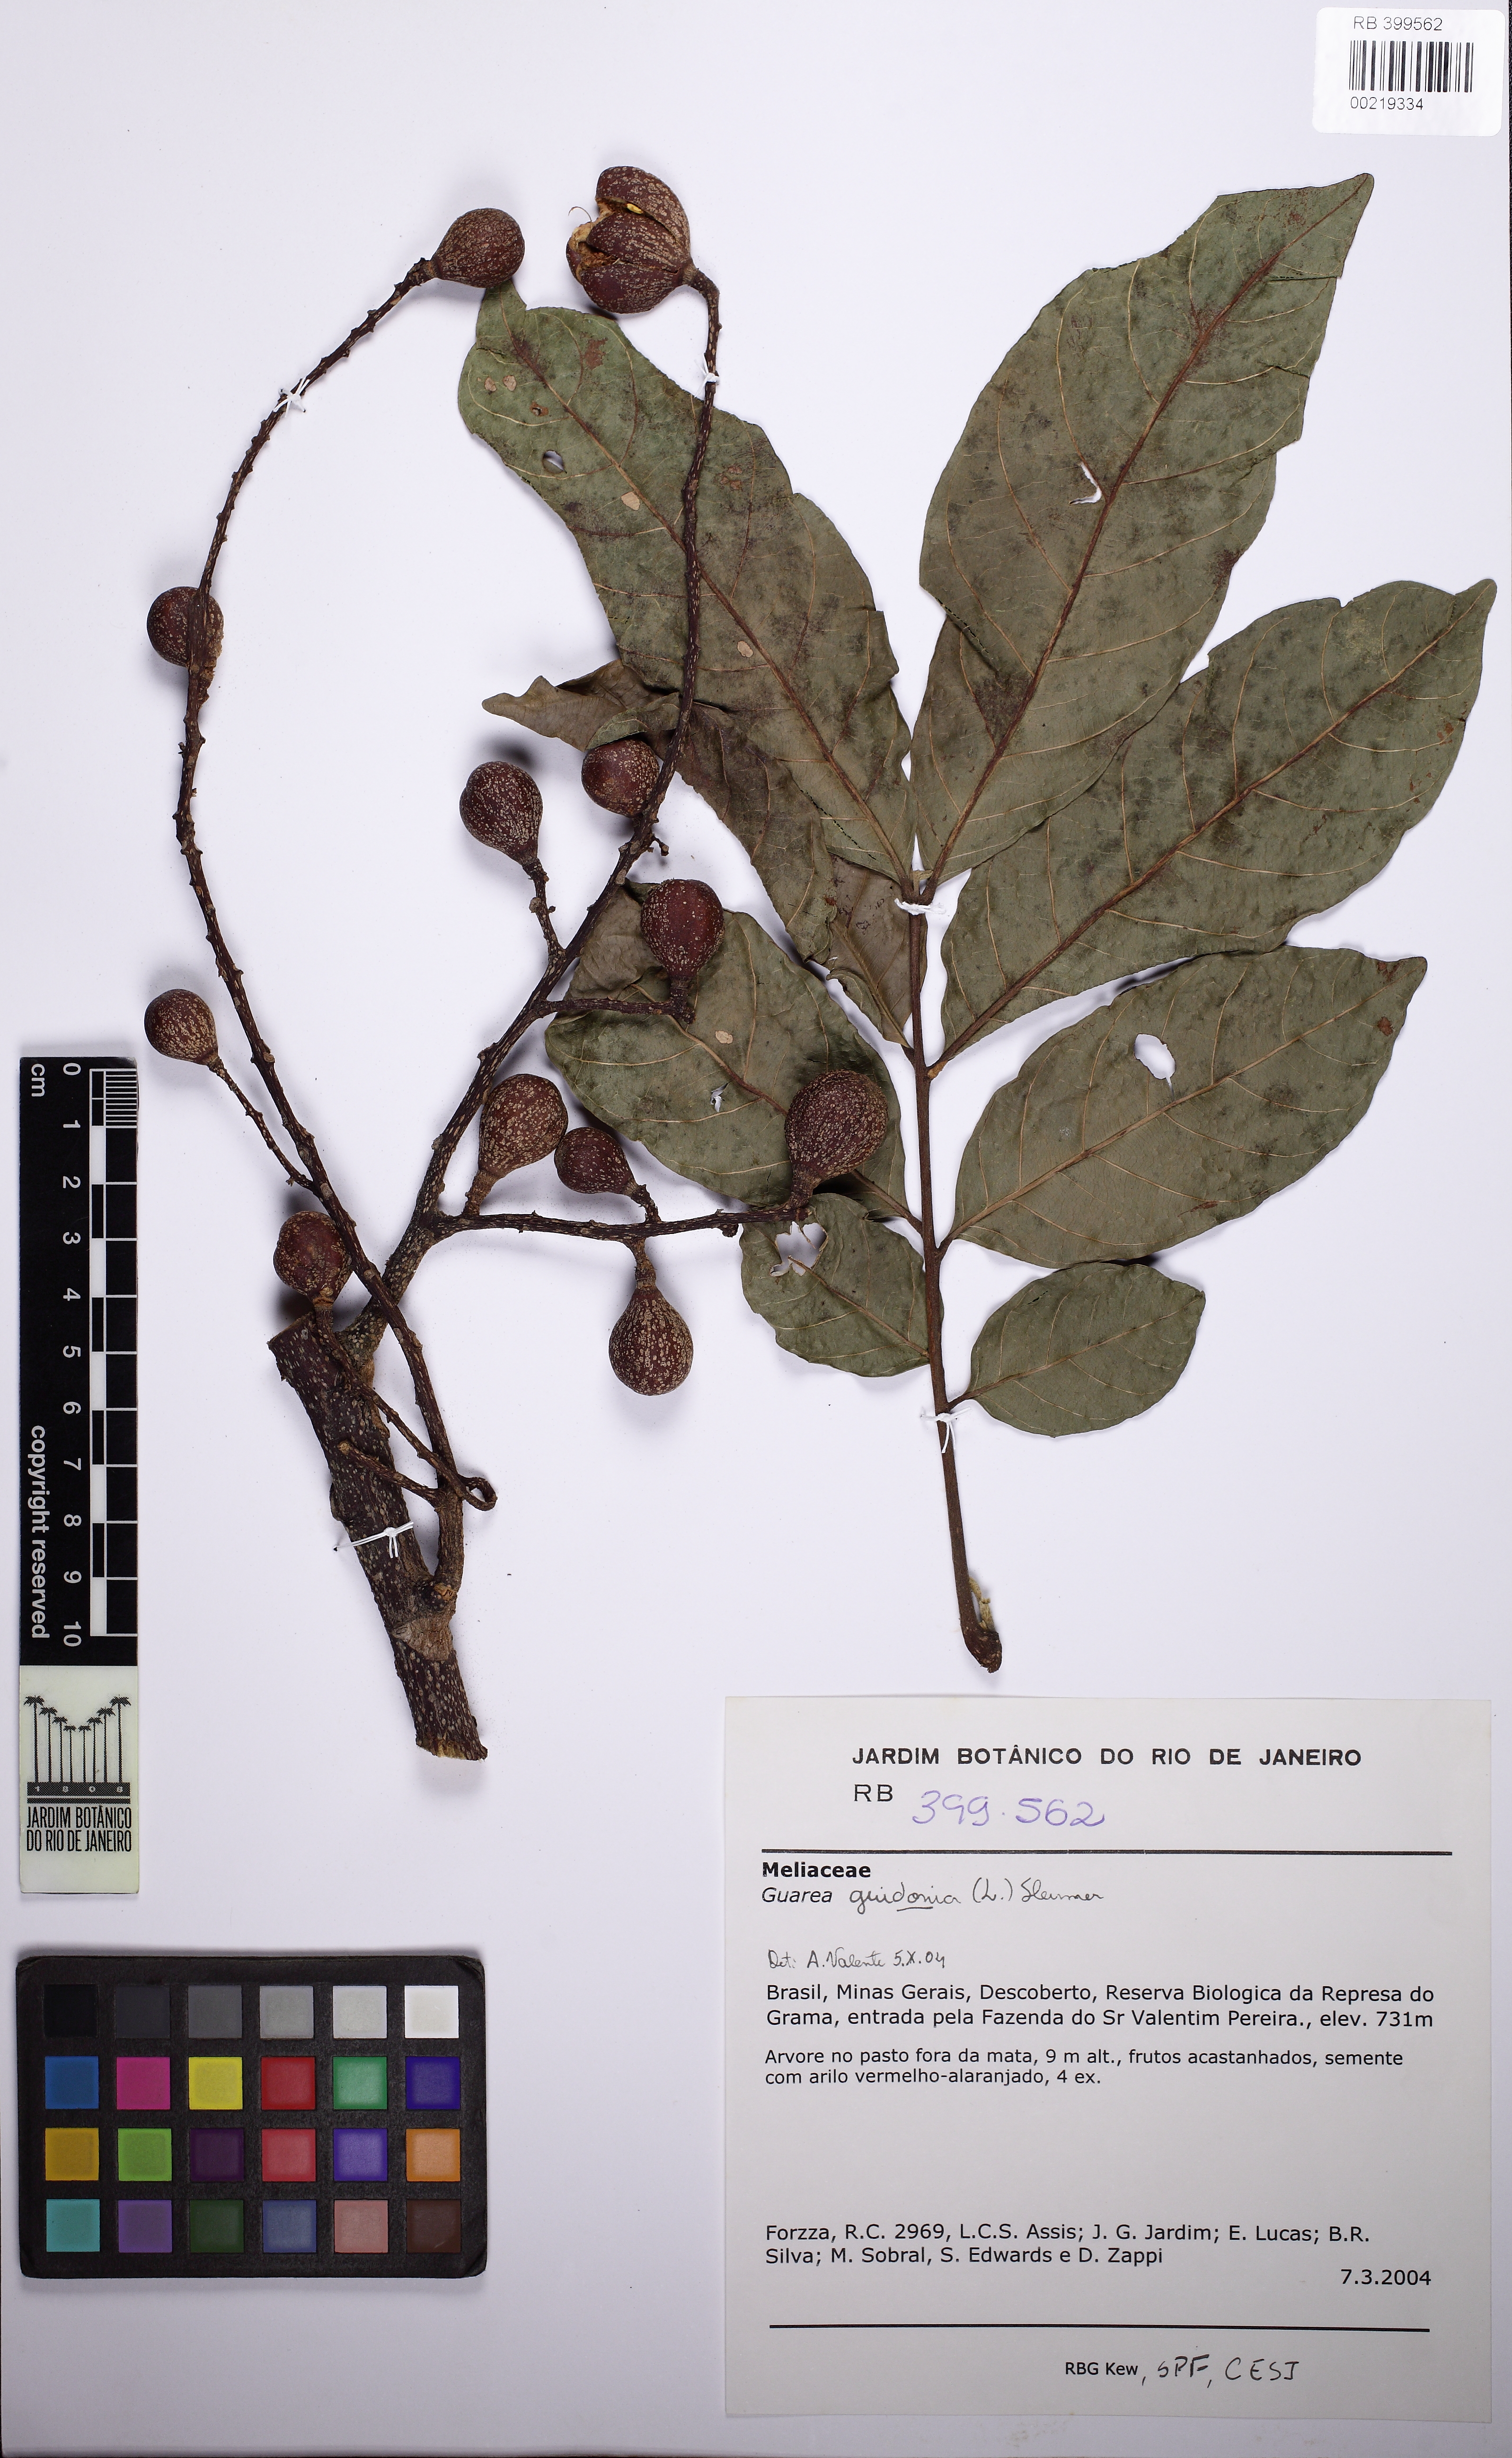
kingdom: Plantae
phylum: Tracheophyta
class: Magnoliopsida
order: Sapindales
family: Meliaceae
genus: Guarea
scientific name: Guarea guidonia
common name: American muskwood
